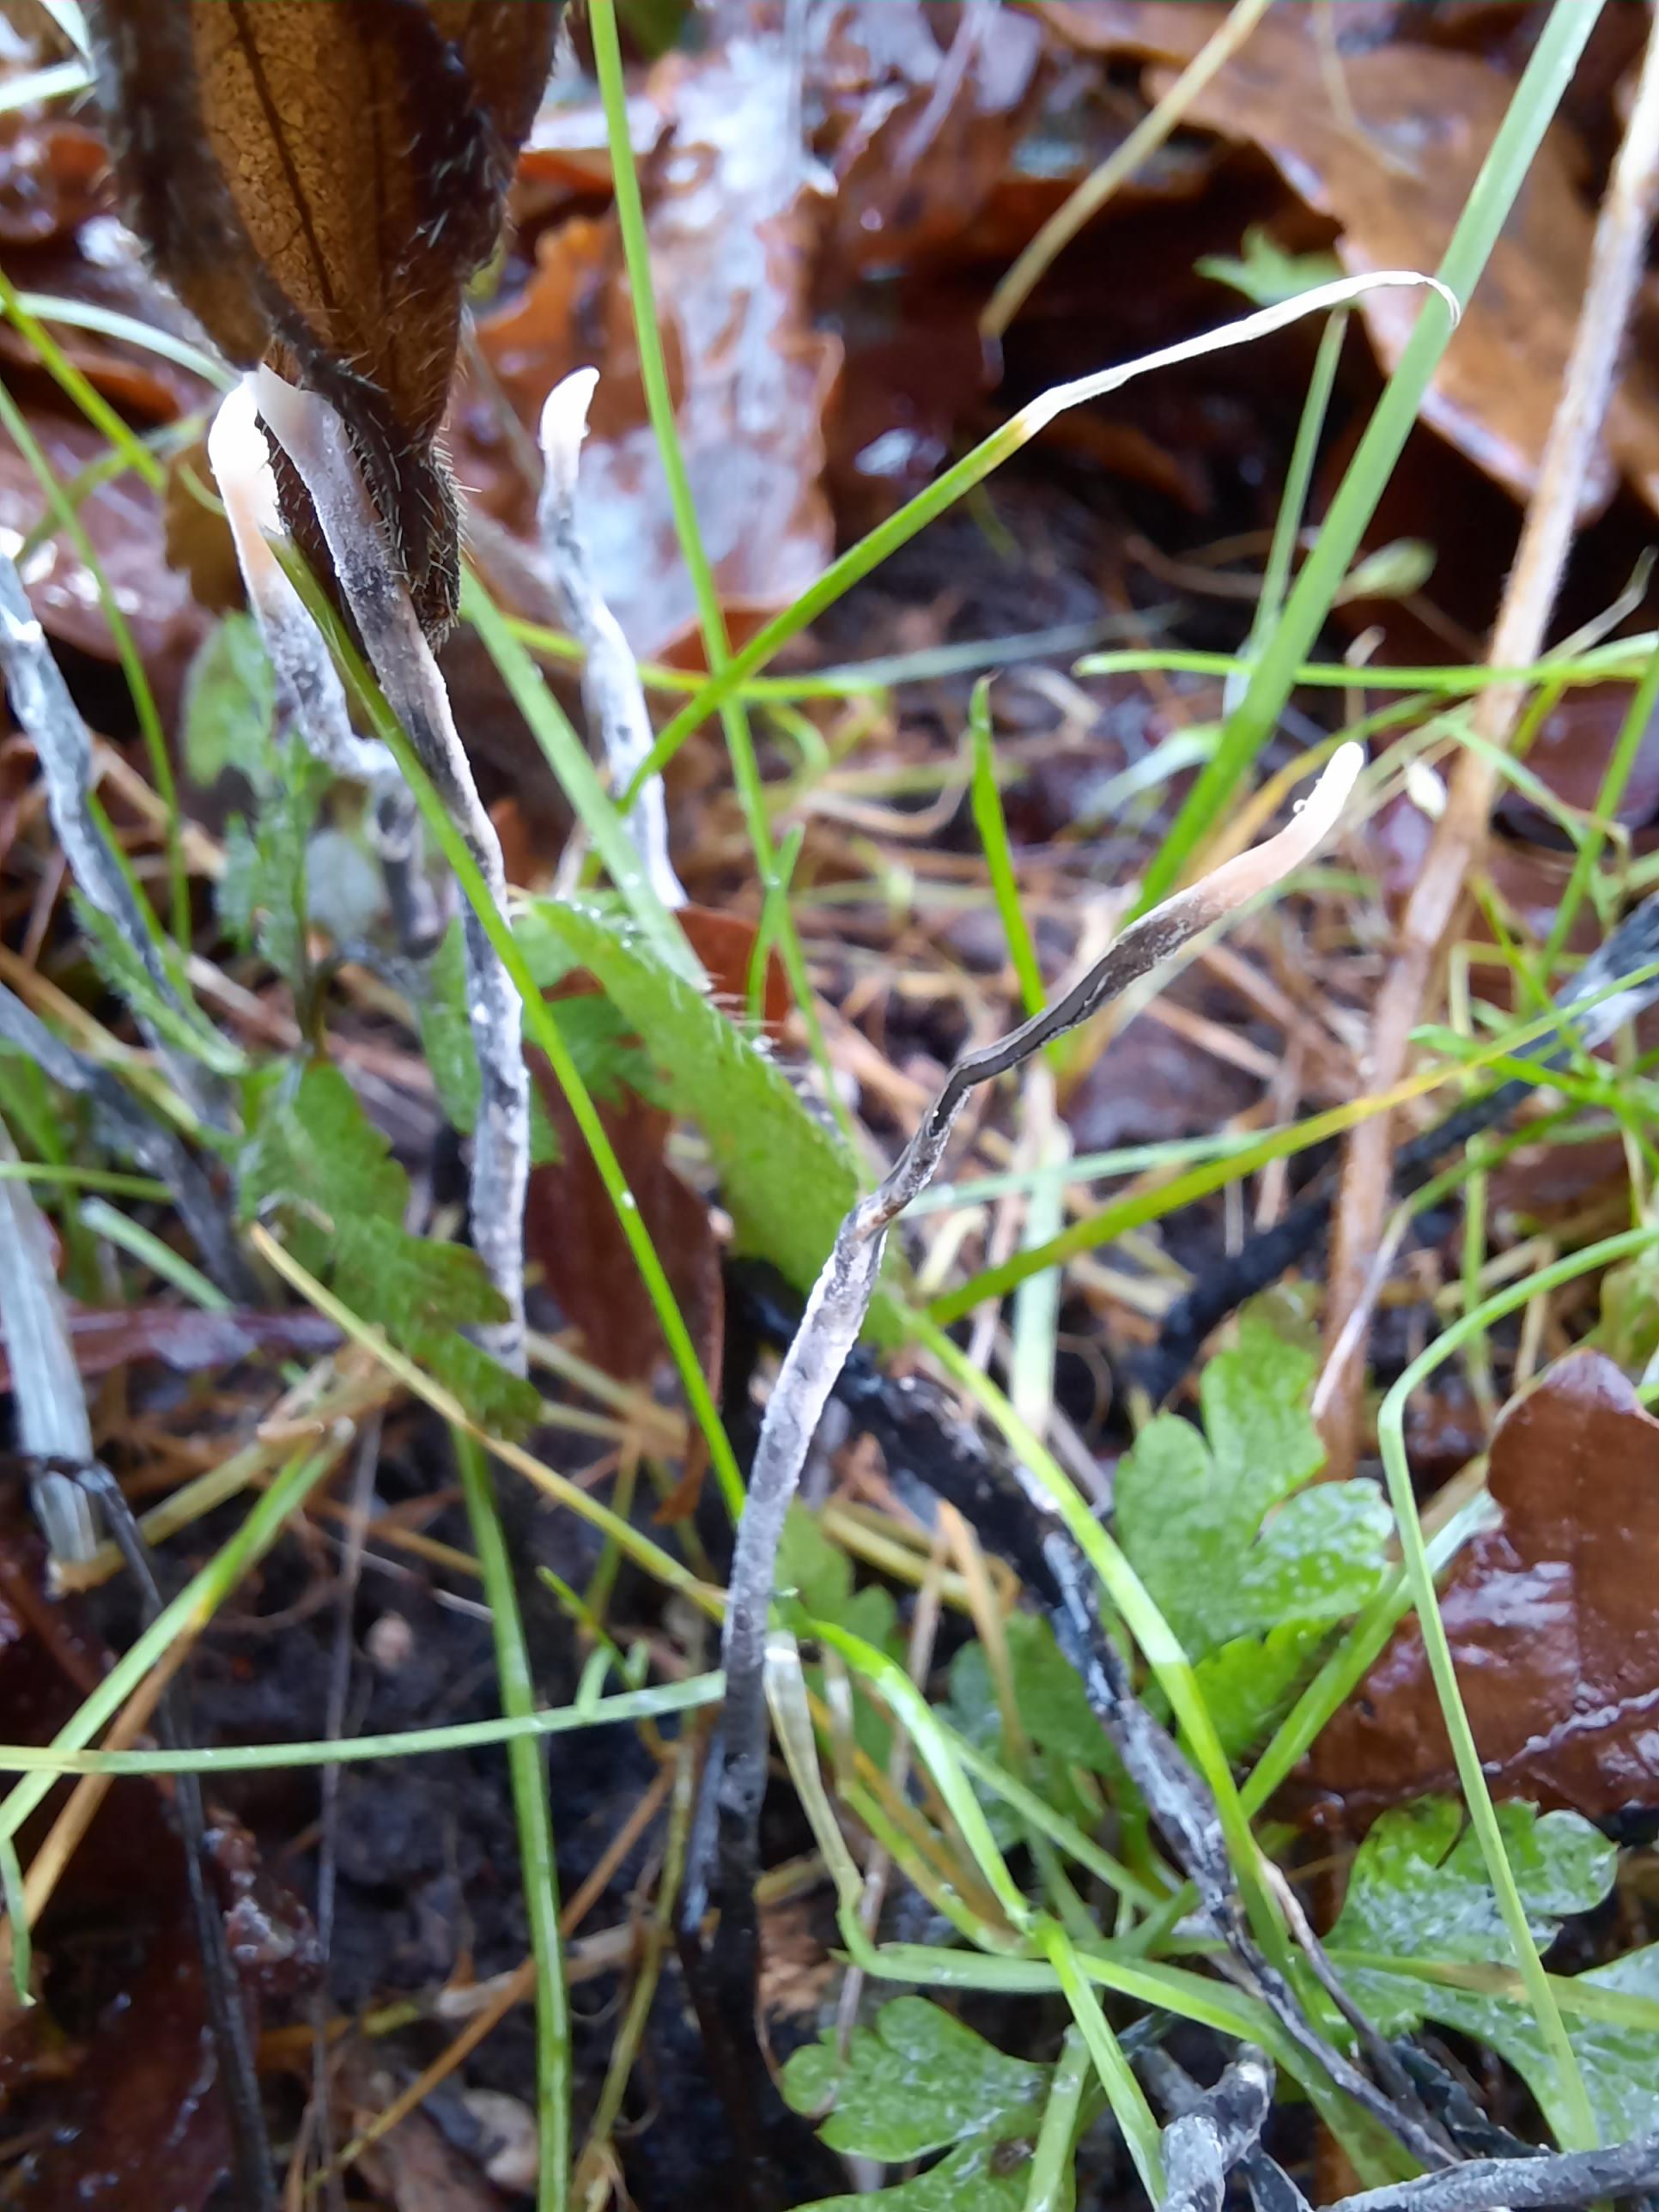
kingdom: Fungi
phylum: Ascomycota
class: Sordariomycetes
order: Xylariales
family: Xylariaceae
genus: Xylaria
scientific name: Xylaria hypoxylon
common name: grenet stødsvamp
